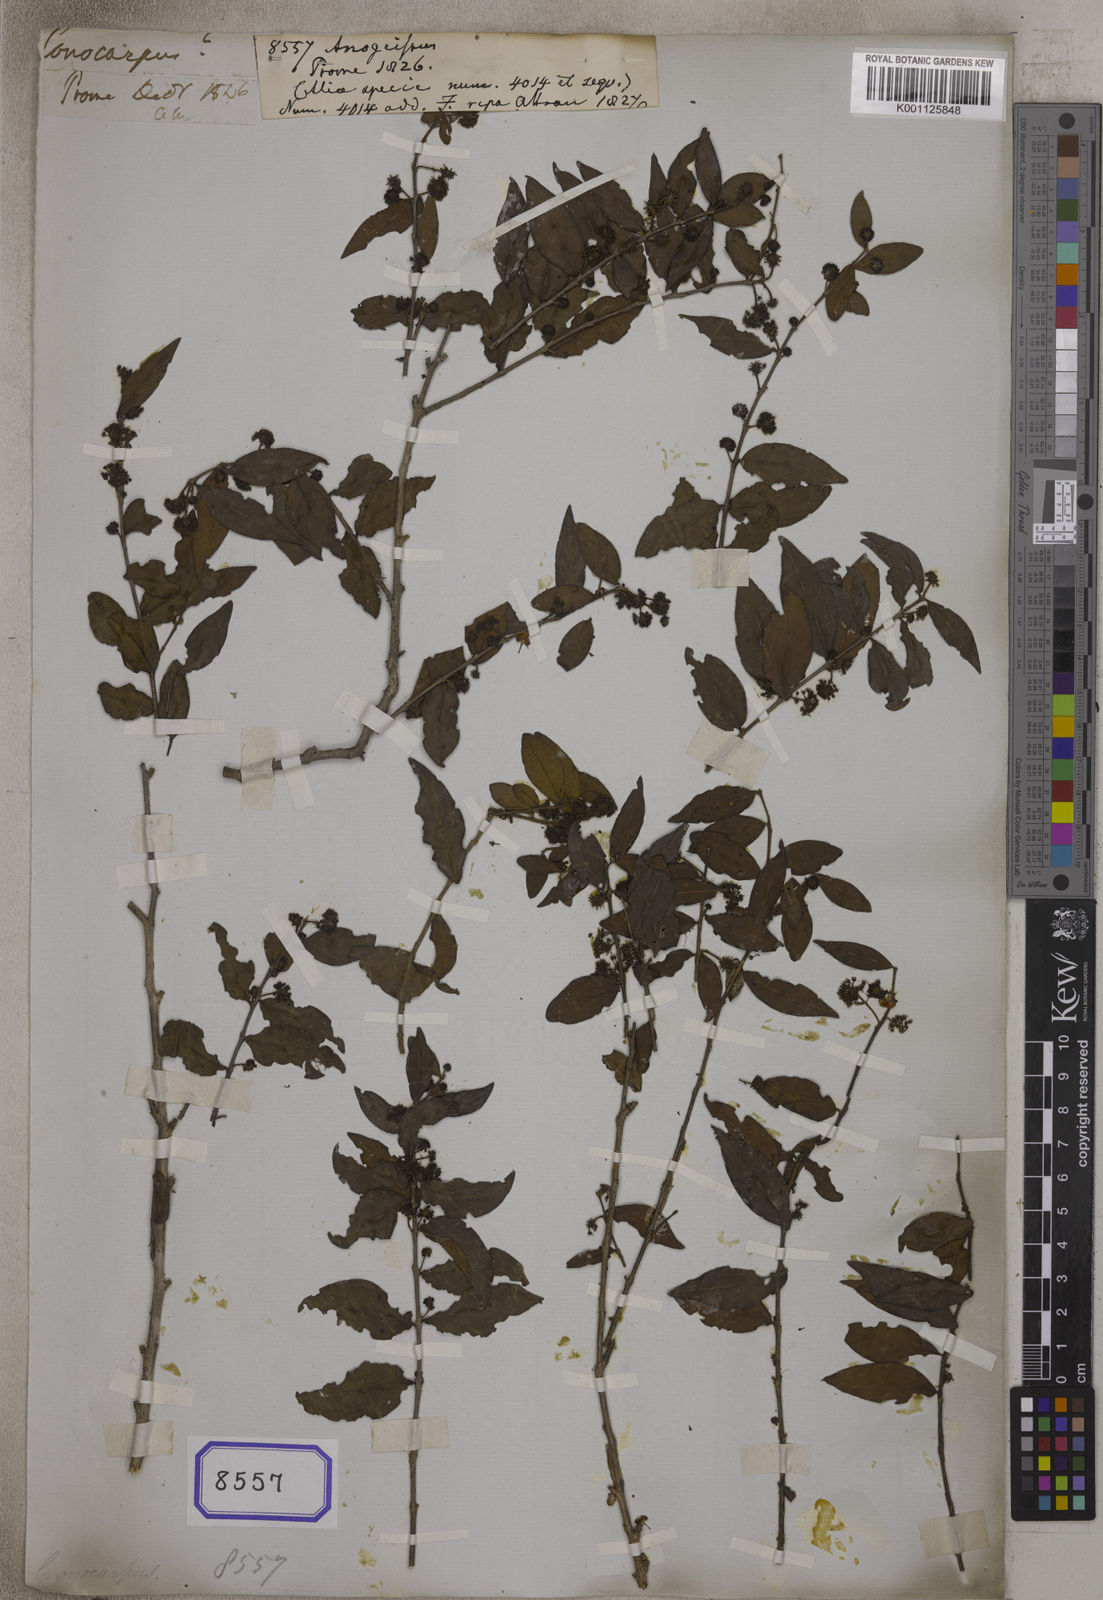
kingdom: Plantae
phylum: Tracheophyta
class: Magnoliopsida
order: Myrtales
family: Combretaceae
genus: Anogeissus
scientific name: Anogeissus
